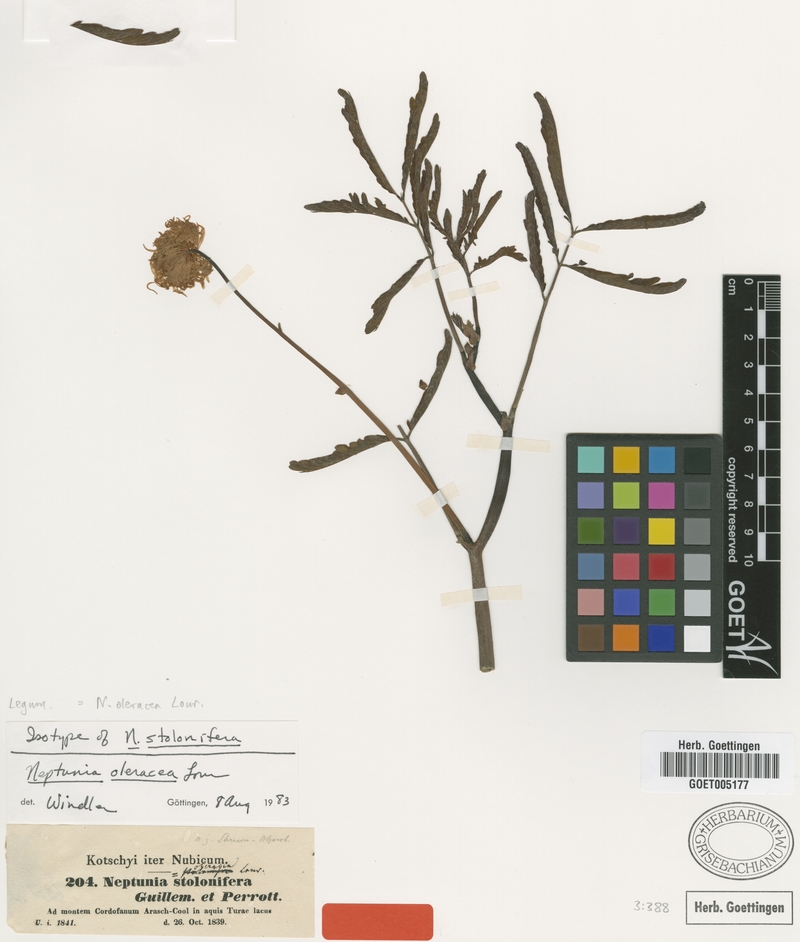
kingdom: Plantae
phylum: Tracheophyta
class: Magnoliopsida
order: Fabales
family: Fabaceae
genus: Neptunia
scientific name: Neptunia prostrata
